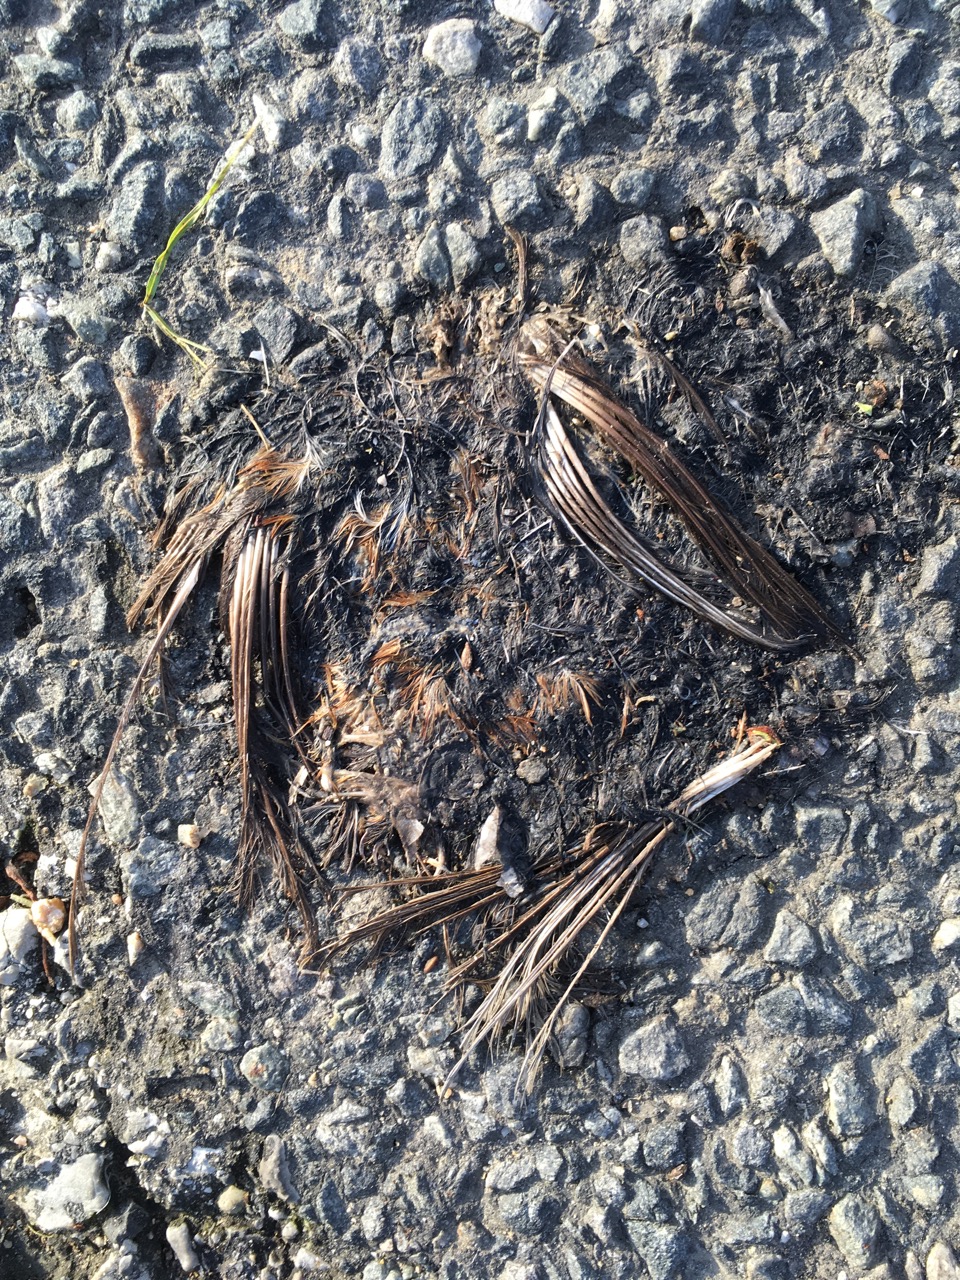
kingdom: Animalia
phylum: Chordata
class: Aves
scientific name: Aves
